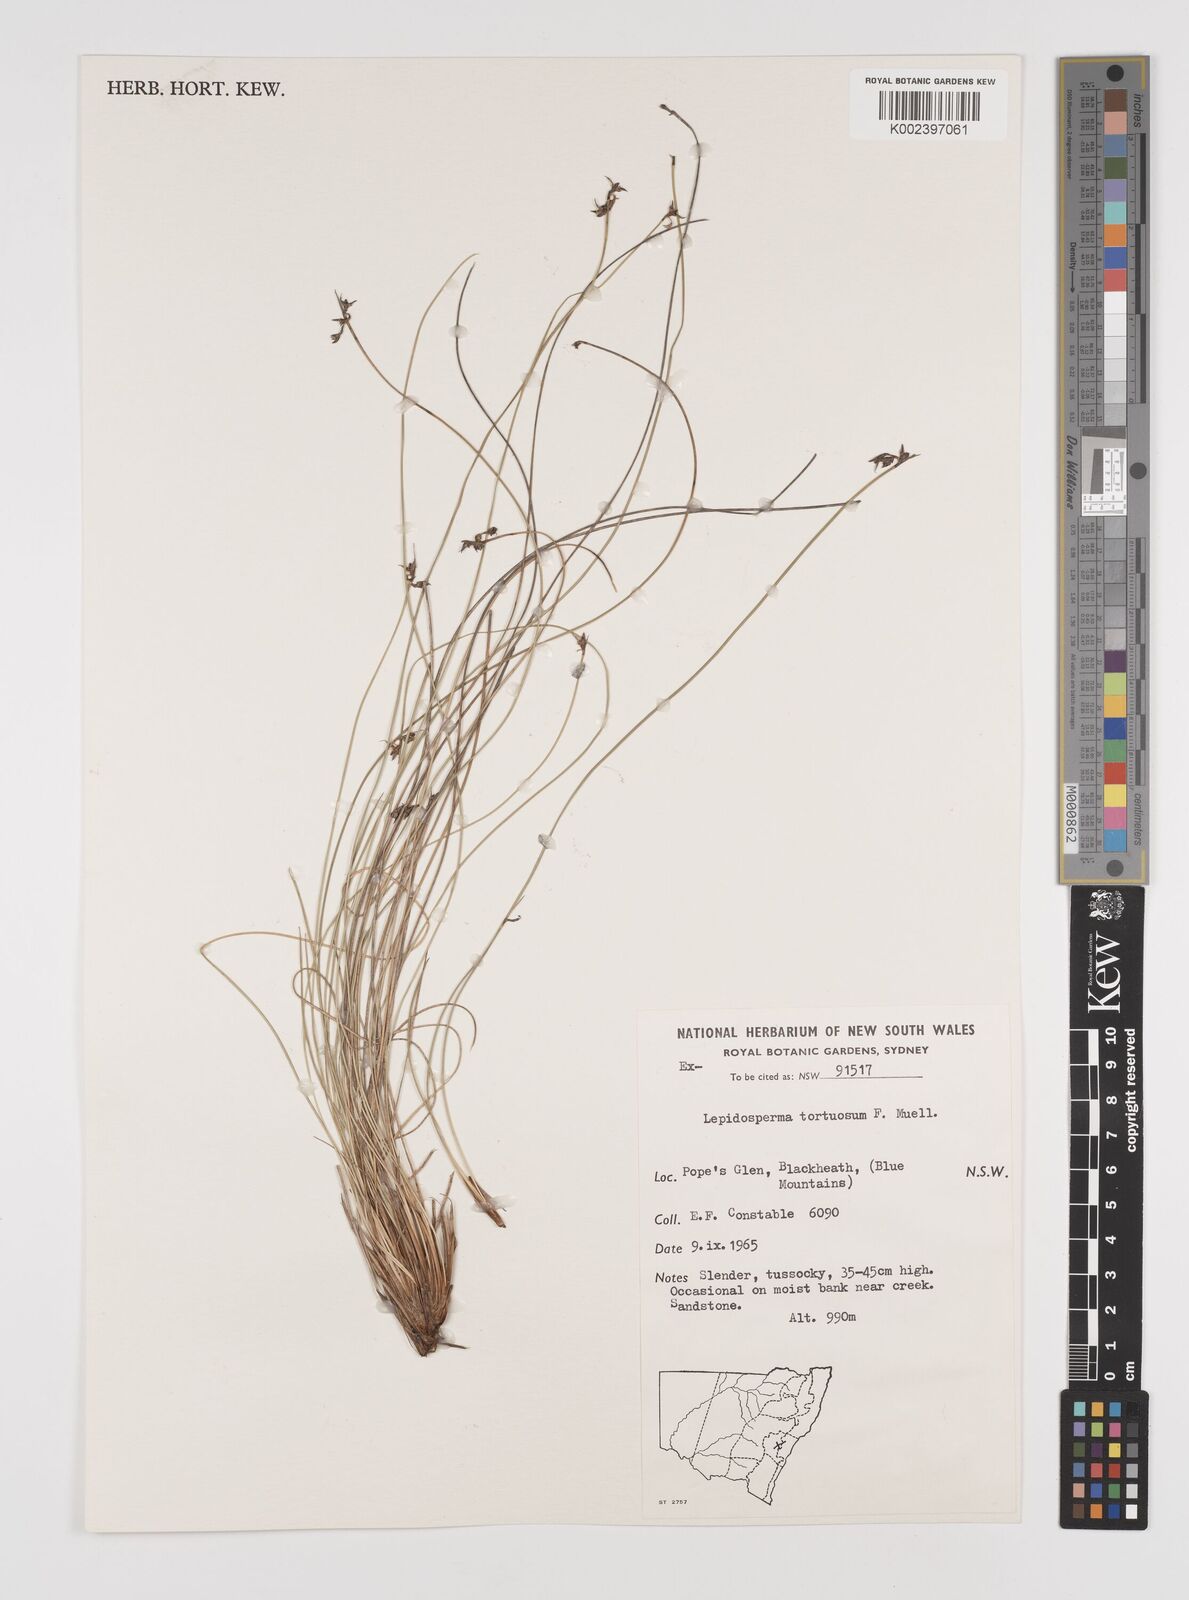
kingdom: Plantae
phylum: Tracheophyta
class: Liliopsida
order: Poales
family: Cyperaceae
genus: Lepidosperma
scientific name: Lepidosperma tortuosum
